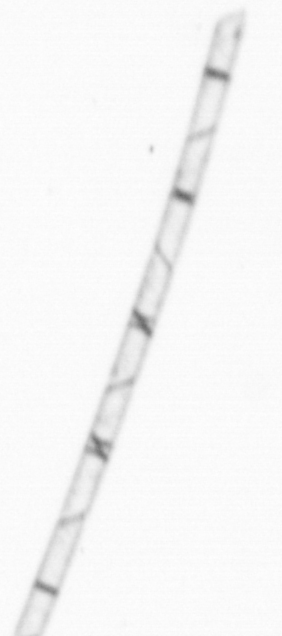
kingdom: Chromista
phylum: Ochrophyta
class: Bacillariophyceae
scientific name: Bacillariophyceae
